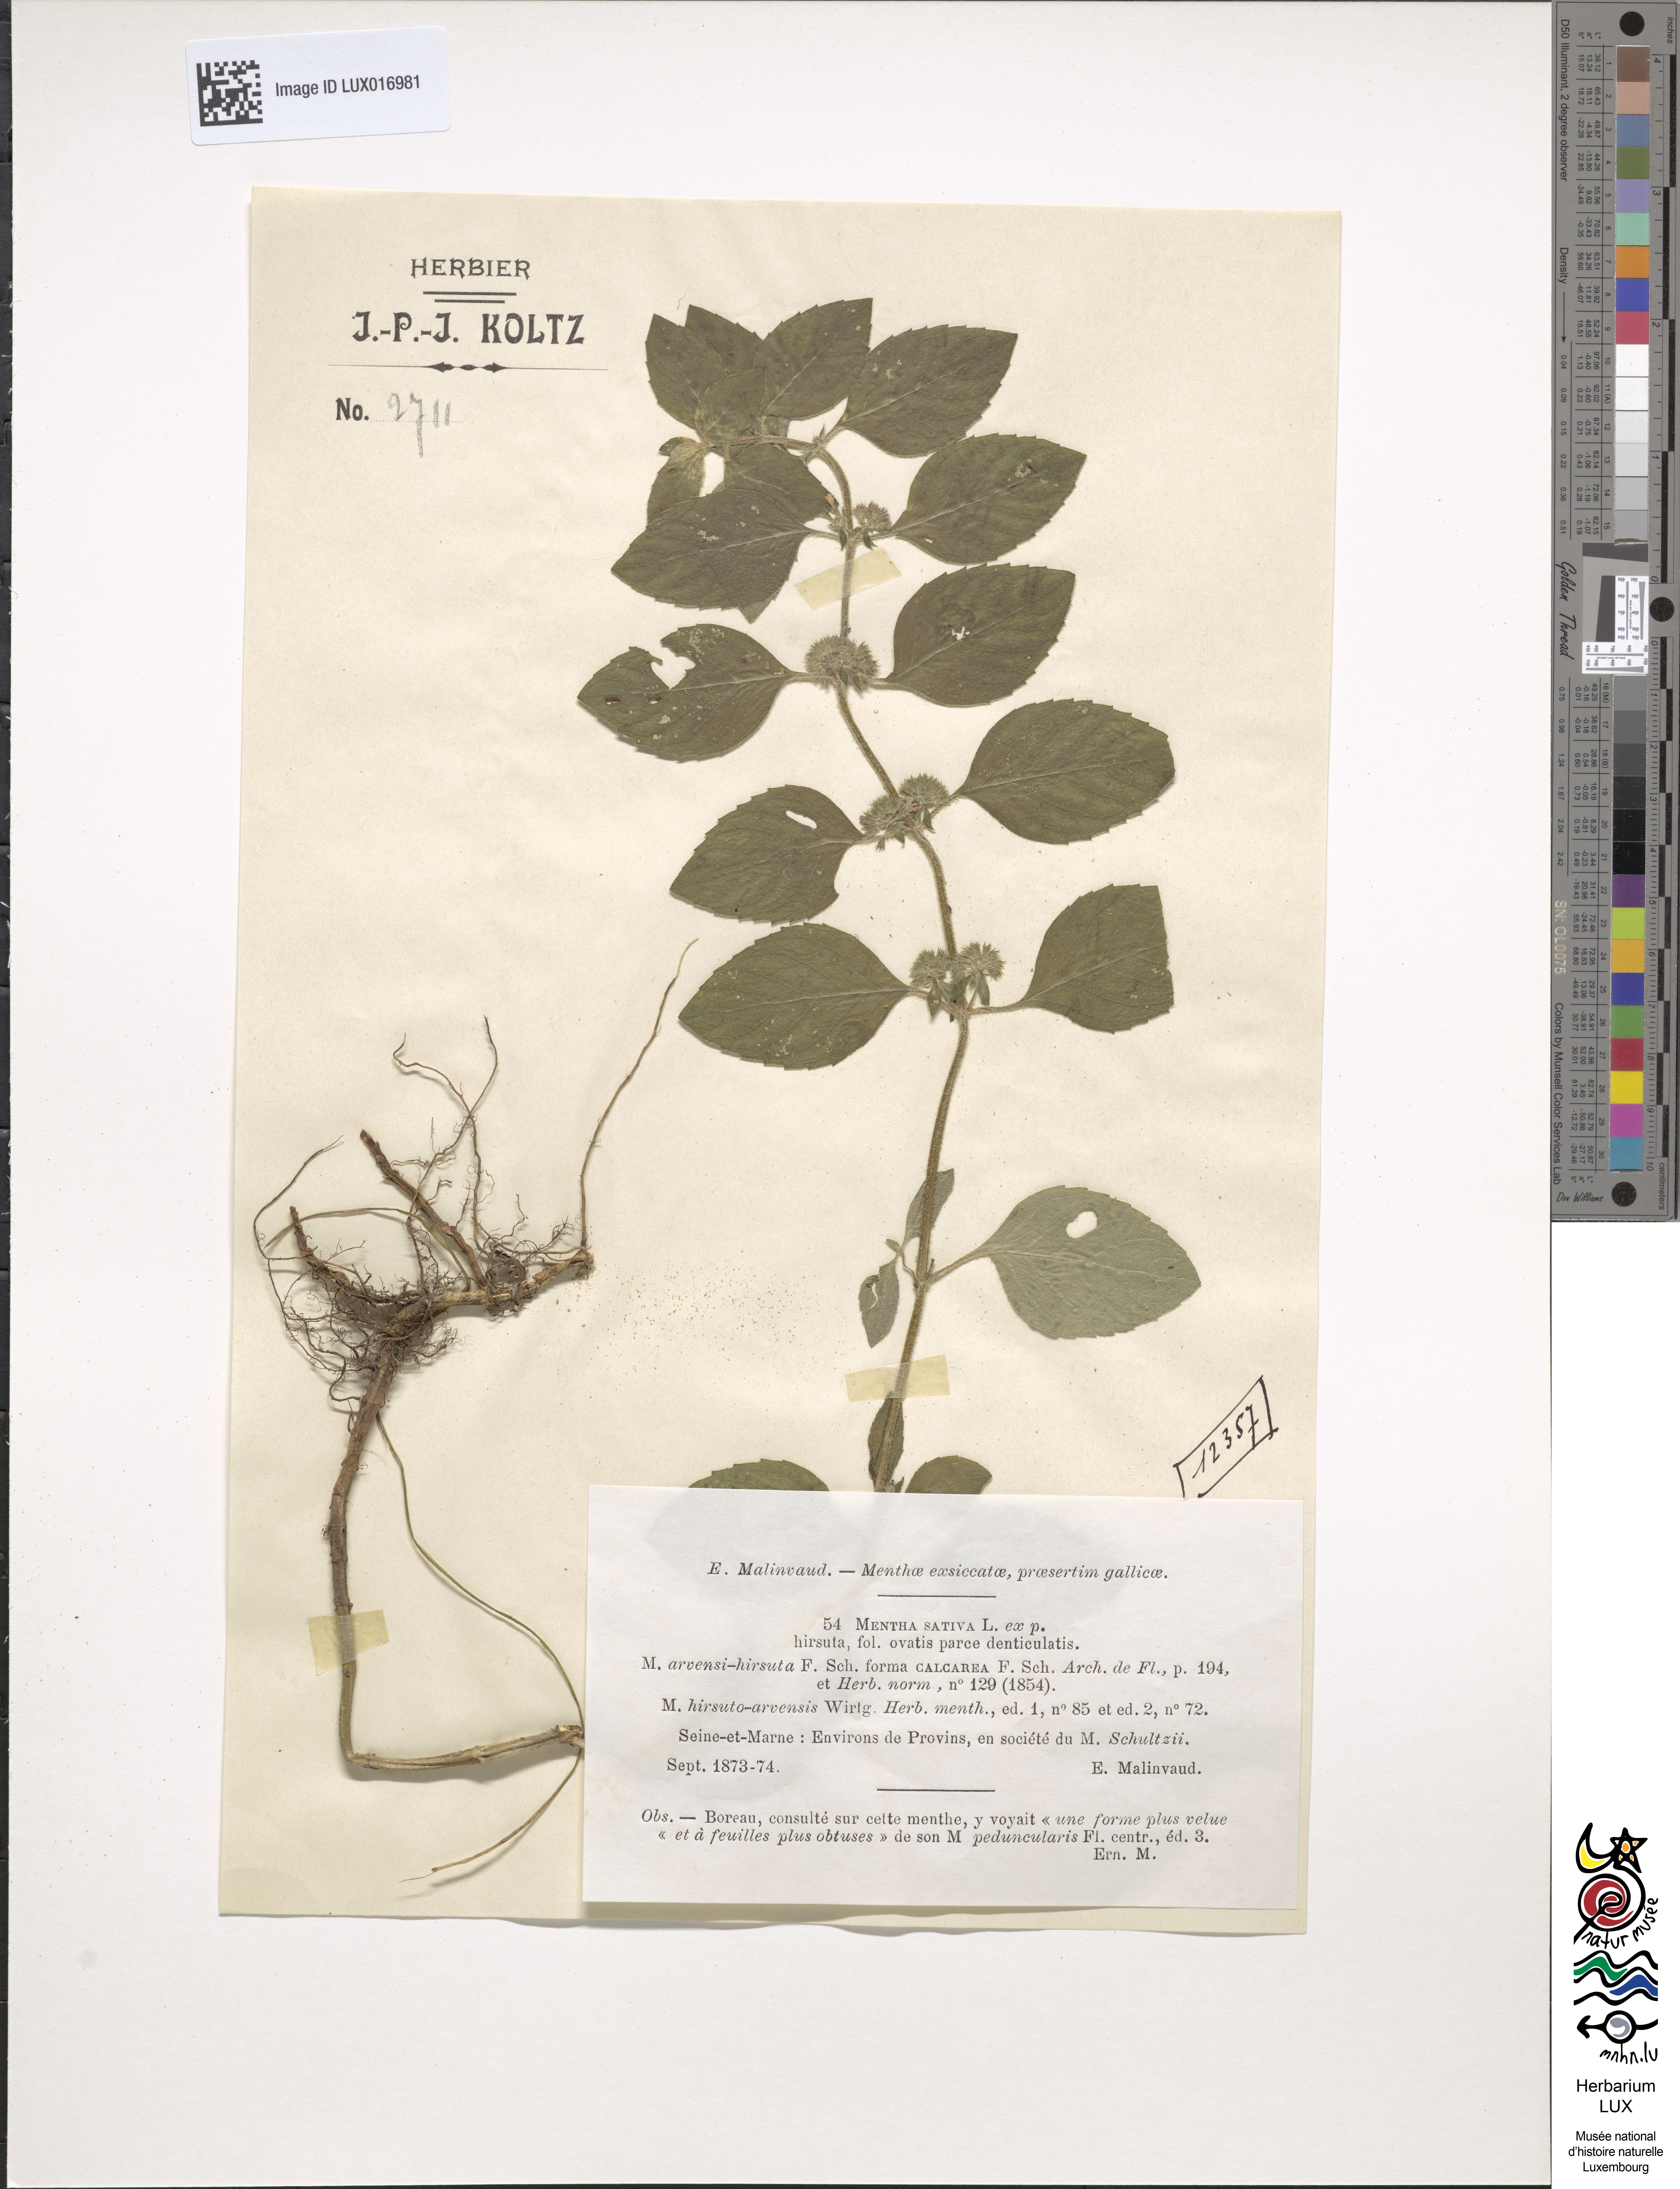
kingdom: Plantae
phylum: Tracheophyta
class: Magnoliopsida
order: Lamiales
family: Lamiaceae
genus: Mentha
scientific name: Mentha verticillata
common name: Mint
